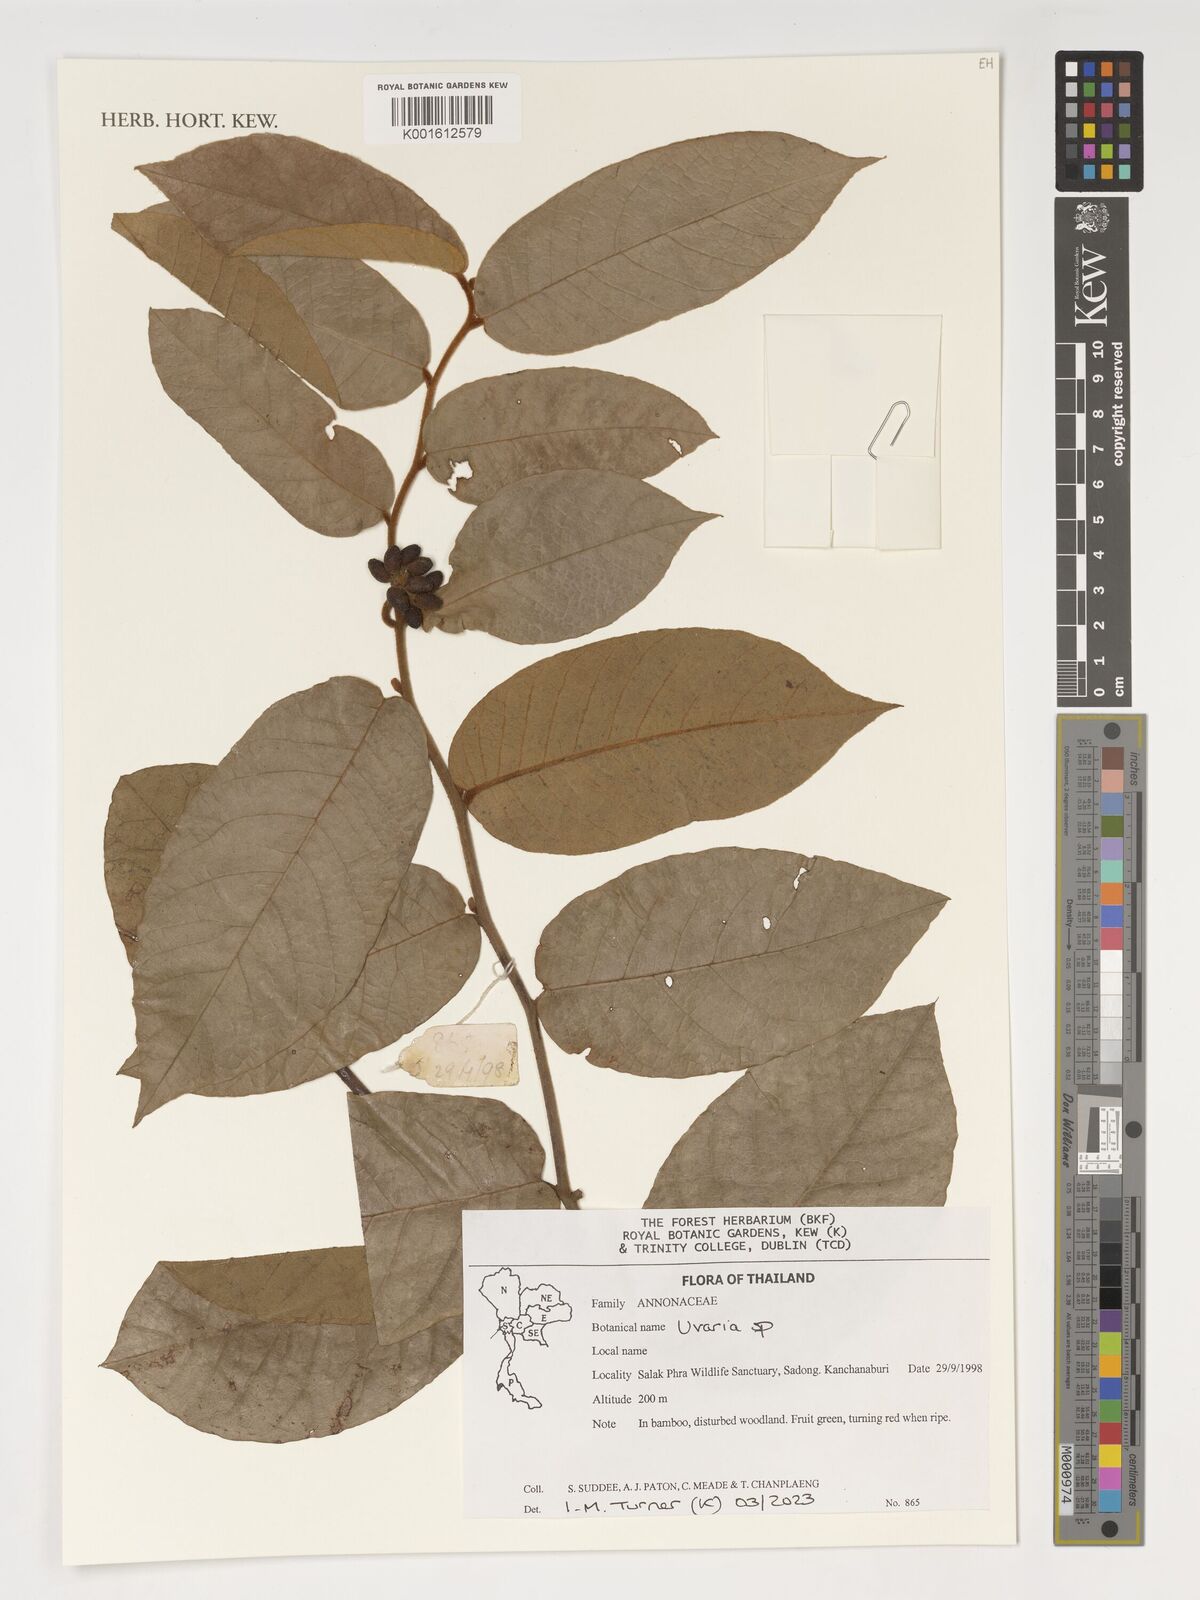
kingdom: Plantae
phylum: Tracheophyta
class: Magnoliopsida
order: Magnoliales
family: Annonaceae
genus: Uvaria
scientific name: Uvaria
